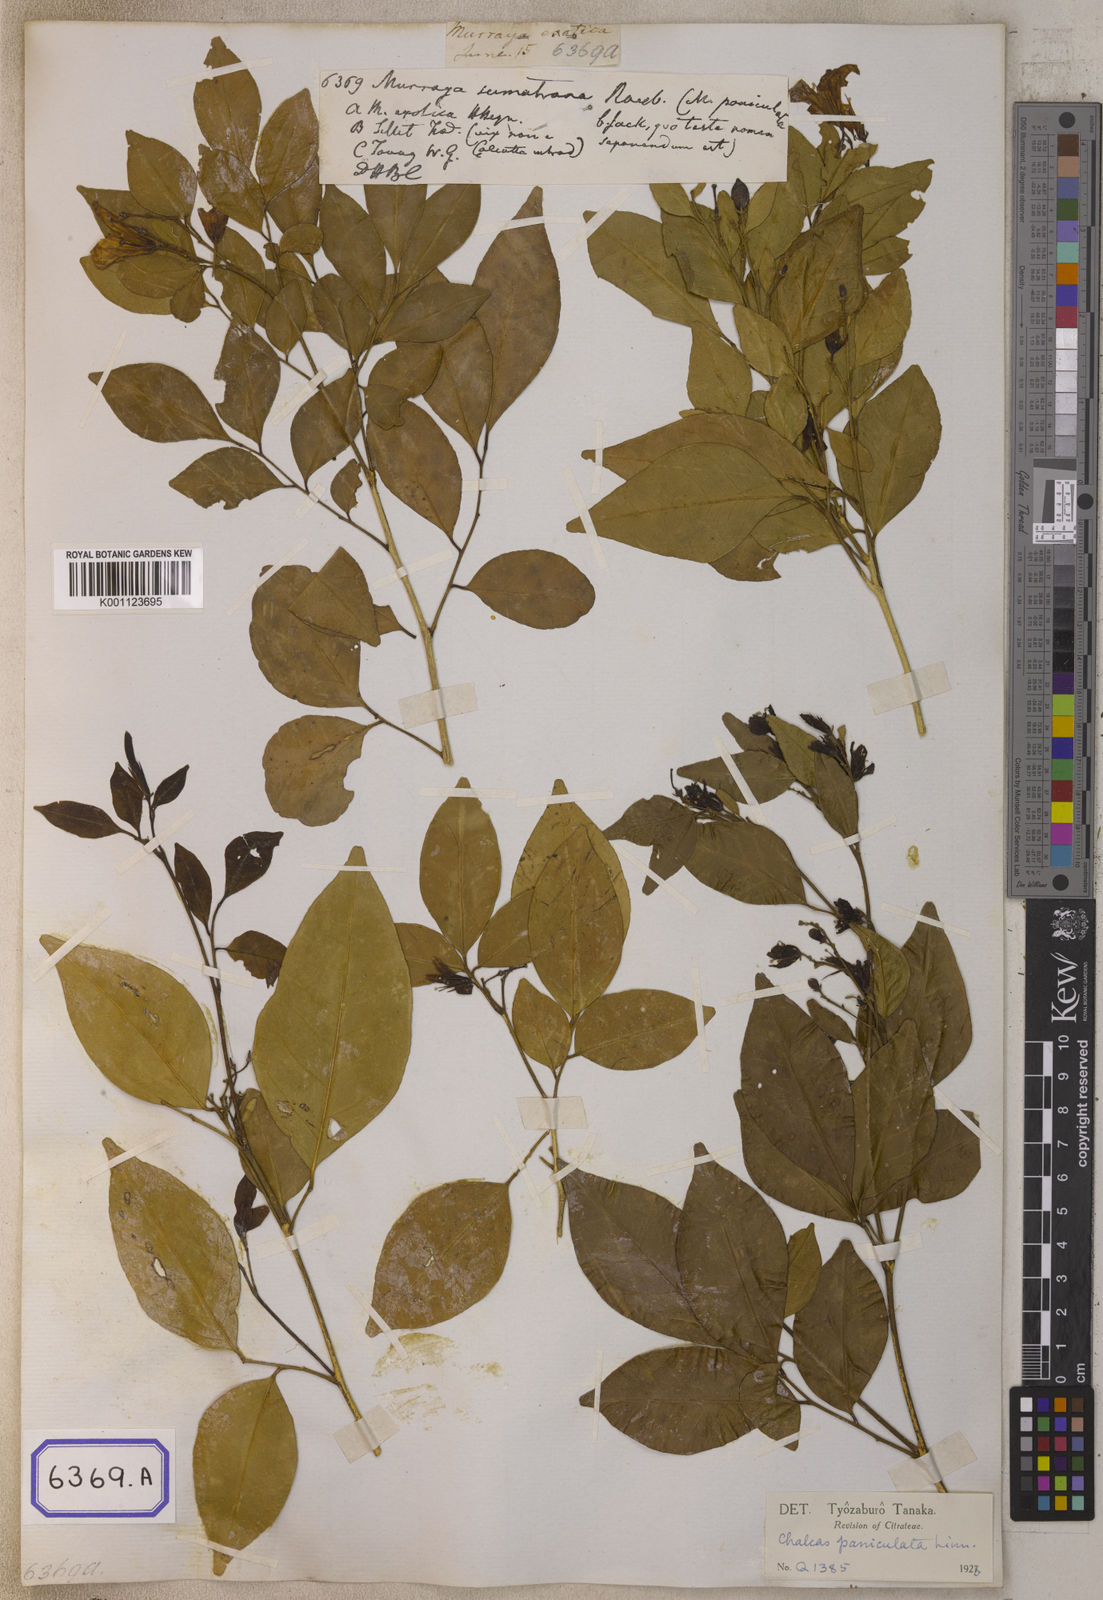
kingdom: Plantae
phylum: Tracheophyta
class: Magnoliopsida
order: Sapindales
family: Rutaceae
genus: Murraya
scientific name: Murraya sumatrana
